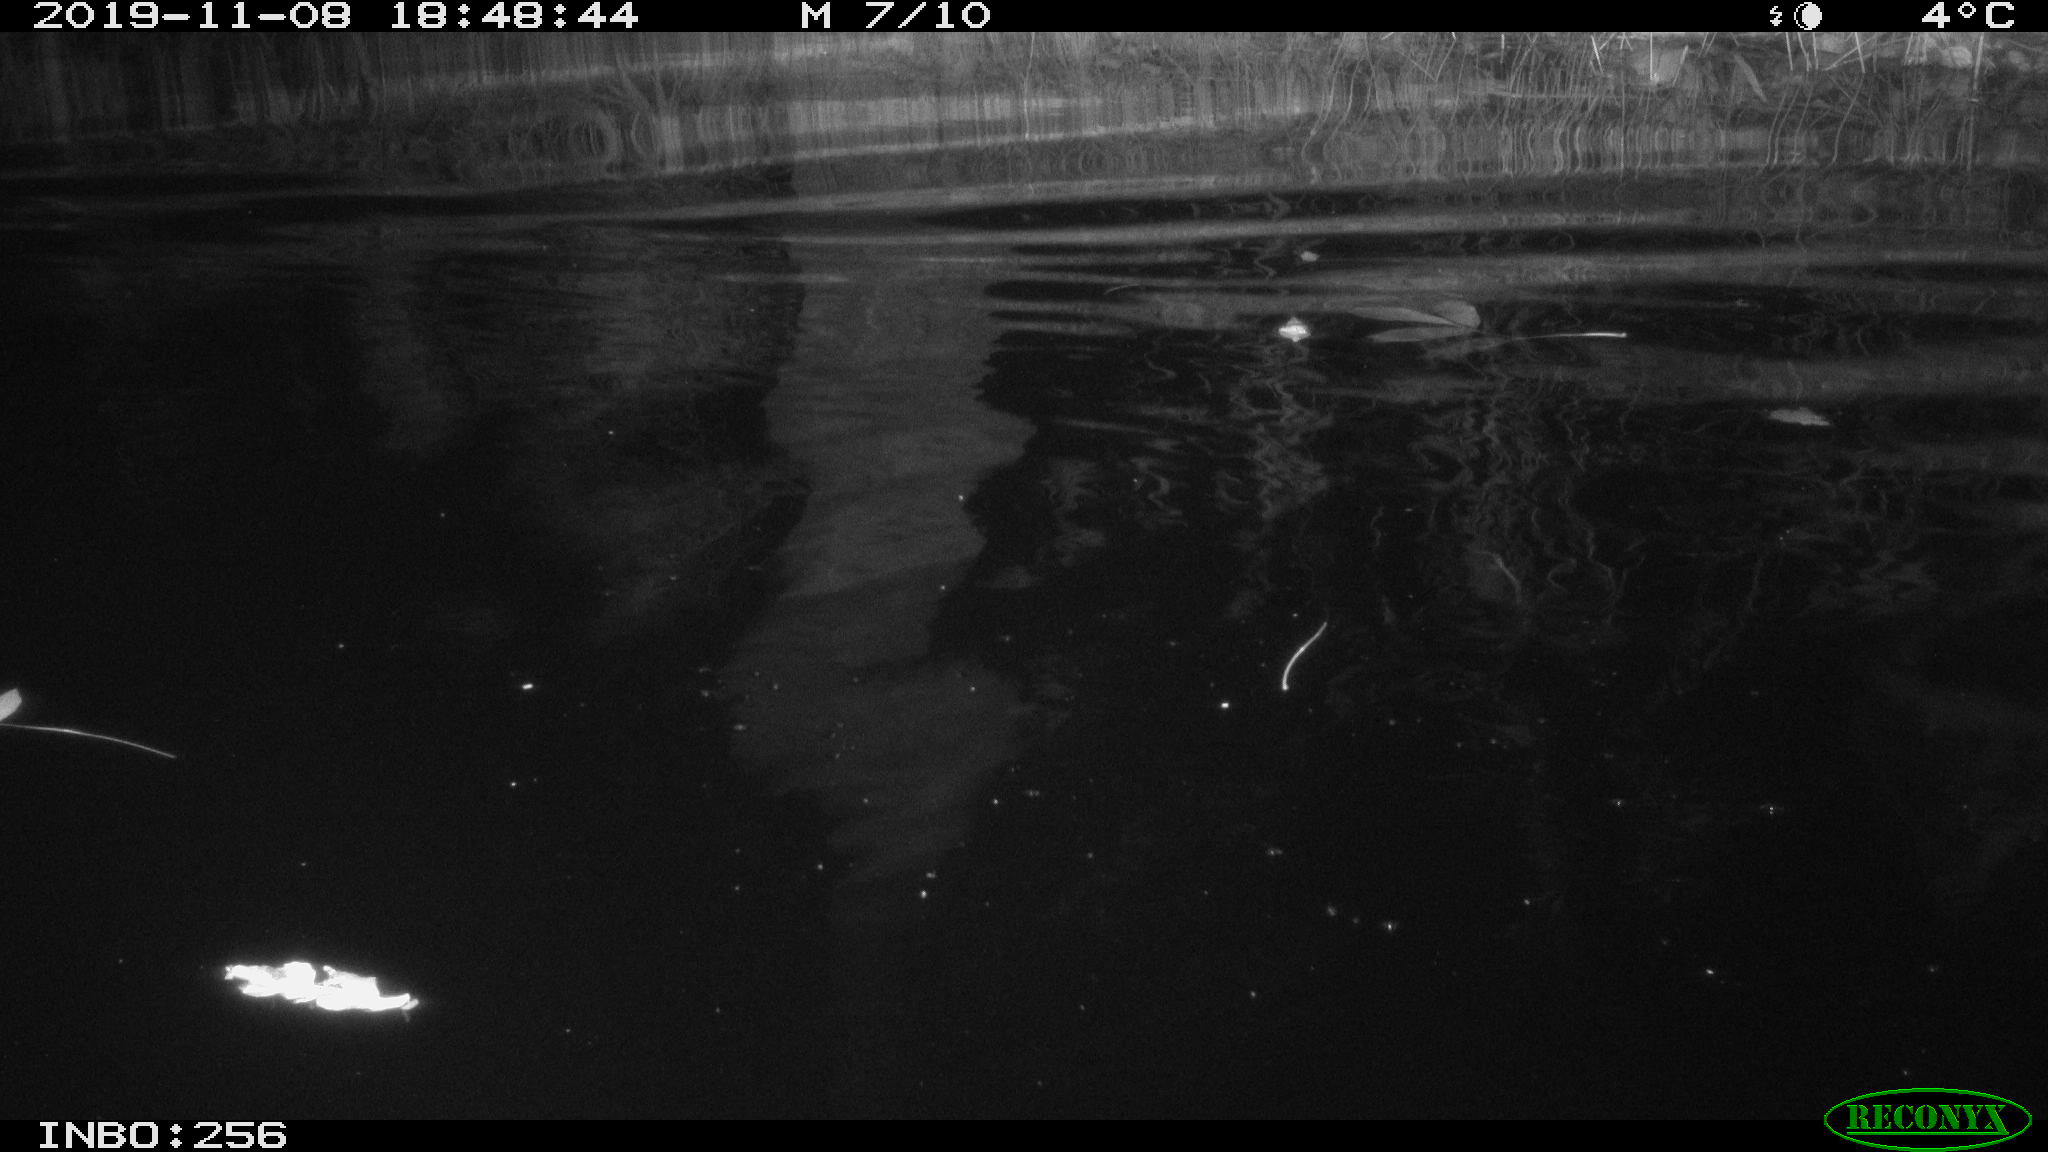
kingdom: Animalia
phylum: Chordata
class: Aves
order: Anseriformes
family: Anatidae
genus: Anas
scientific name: Anas platyrhynchos
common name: Mallard
